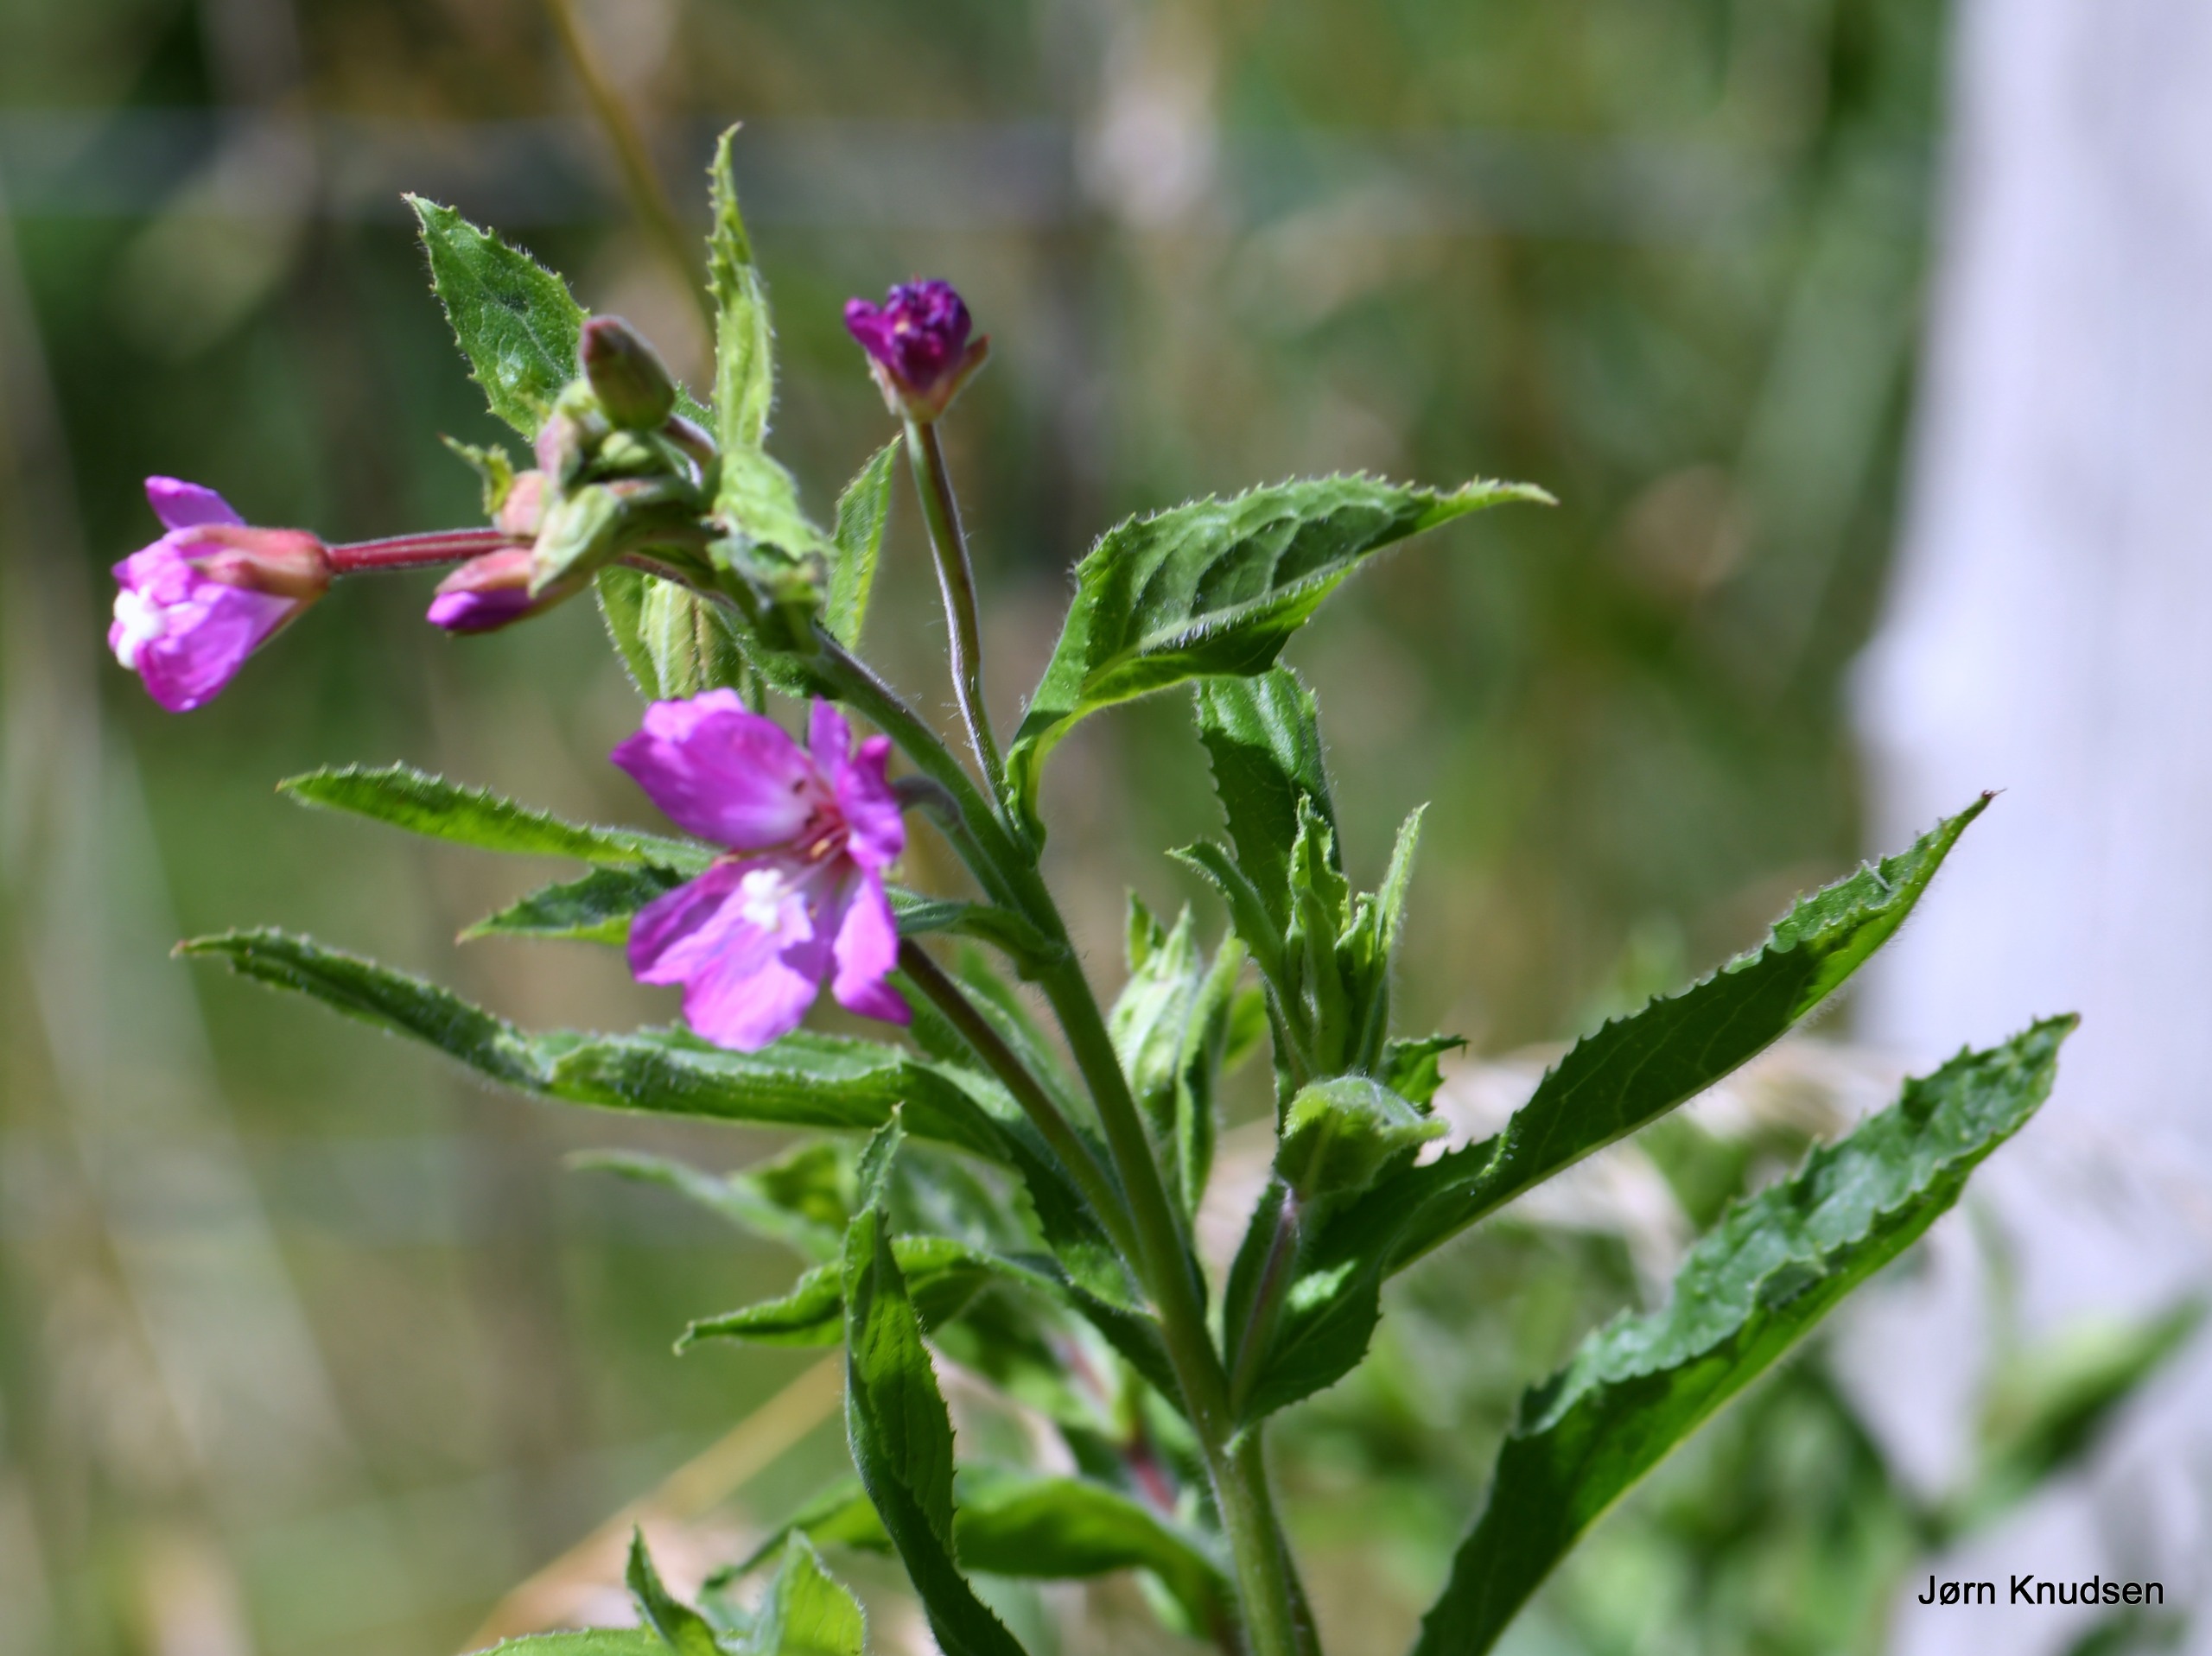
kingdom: Plantae
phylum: Tracheophyta
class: Magnoliopsida
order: Myrtales
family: Onagraceae
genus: Epilobium
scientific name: Epilobium hirsutum
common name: Lådden dueurt
